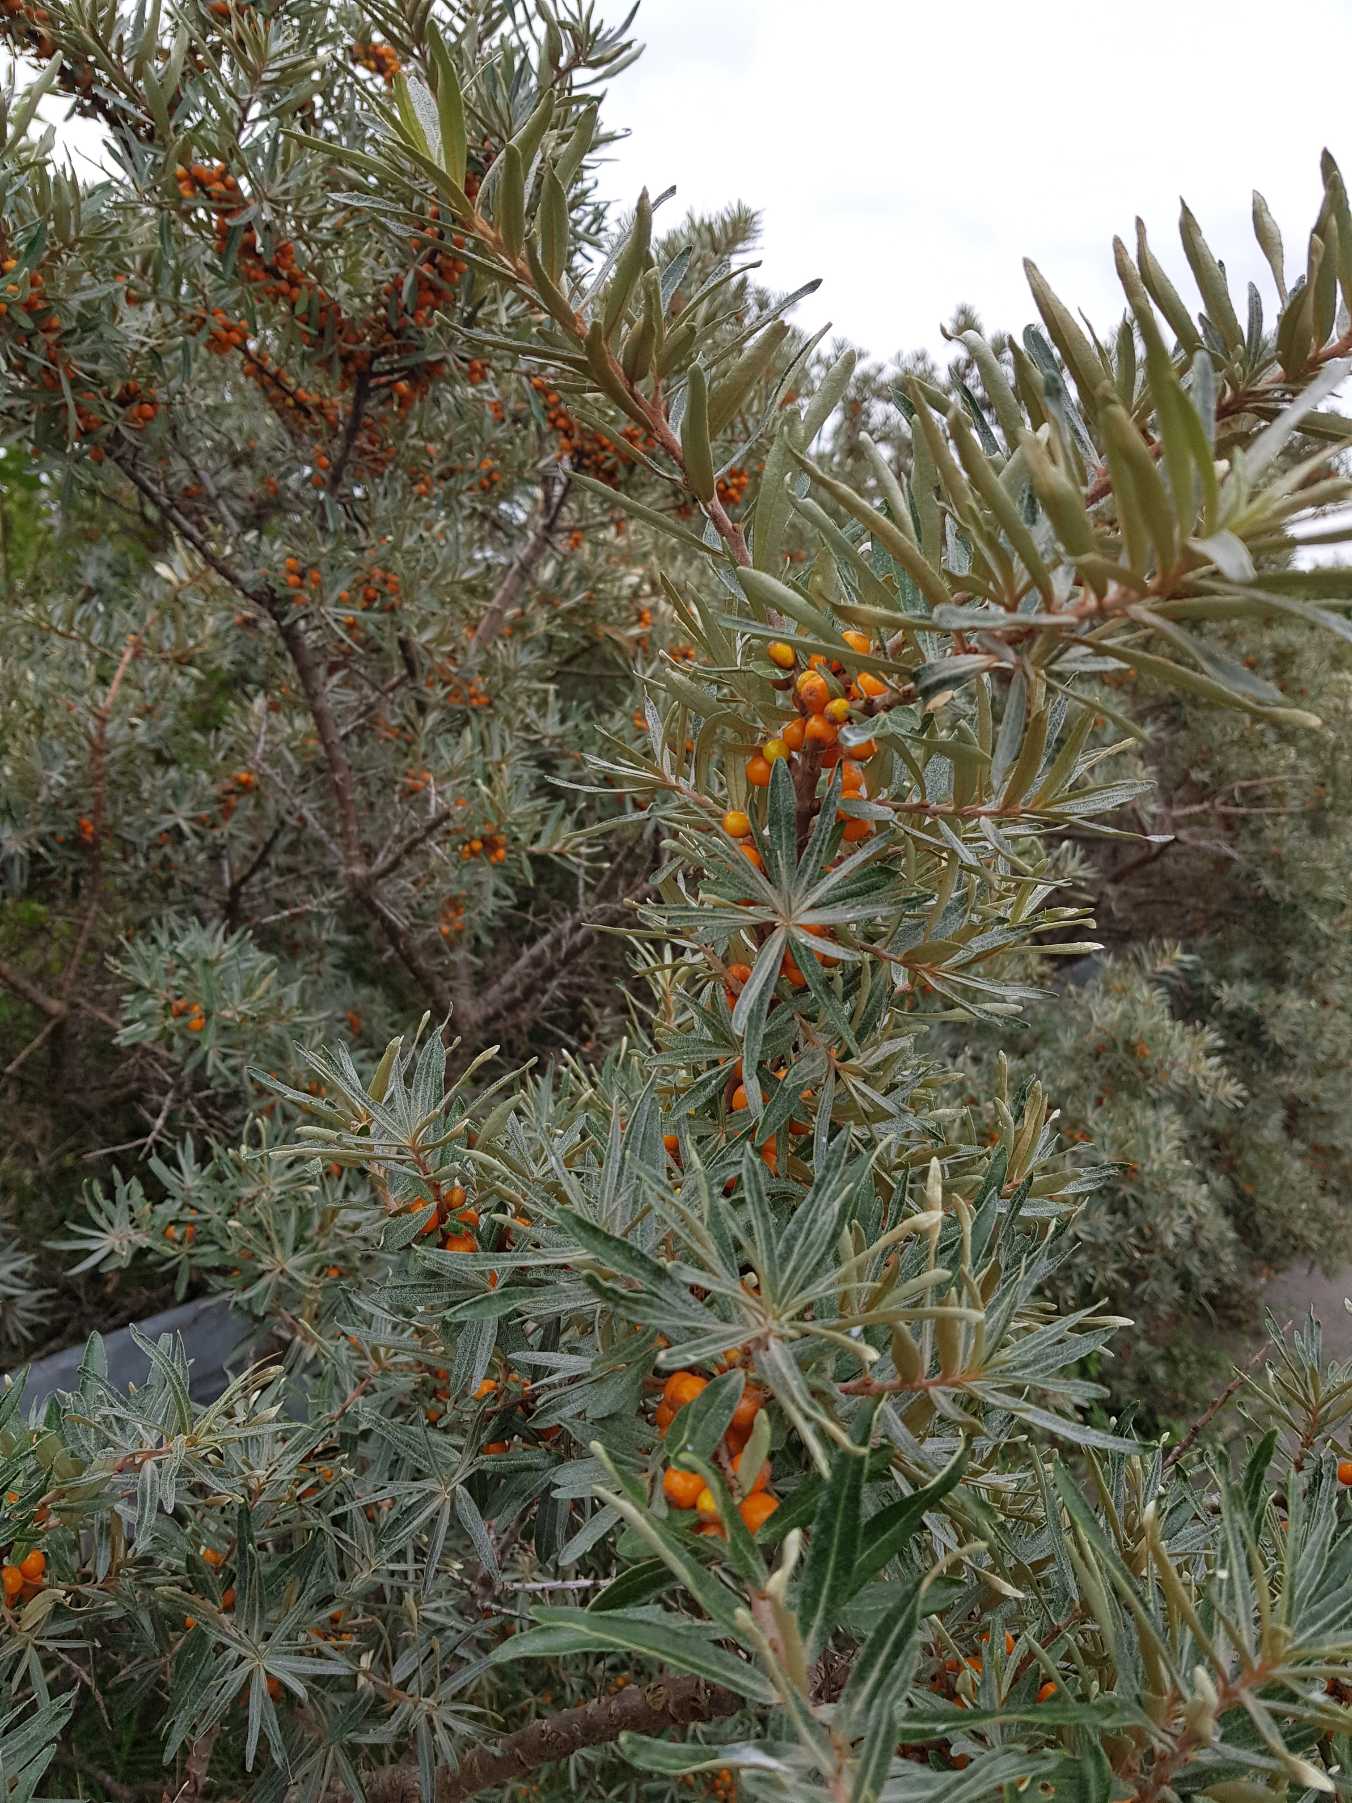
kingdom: Plantae
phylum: Tracheophyta
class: Magnoliopsida
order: Rosales
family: Elaeagnaceae
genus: Hippophae
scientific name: Hippophae rhamnoides
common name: Havtorn
